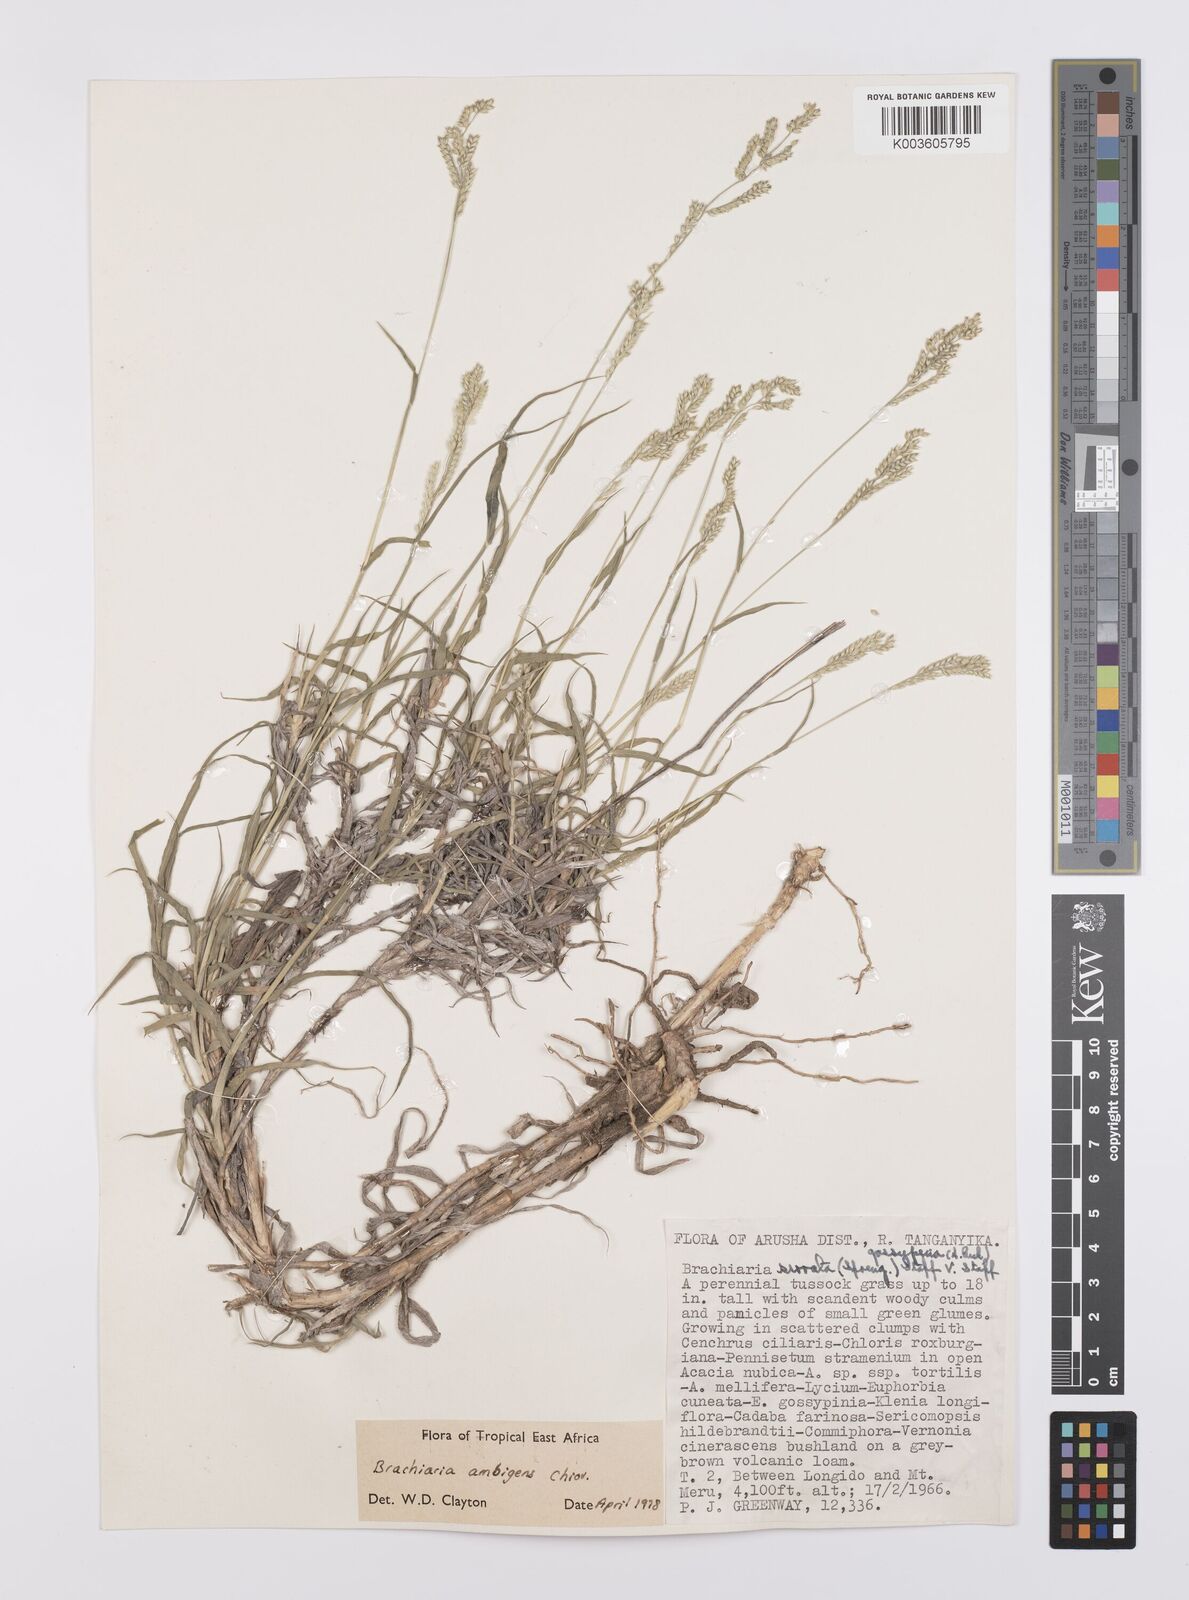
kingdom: Plantae
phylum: Tracheophyta
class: Liliopsida
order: Poales
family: Poaceae
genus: Urochloa
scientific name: Urochloa Brachiaria ambigens
